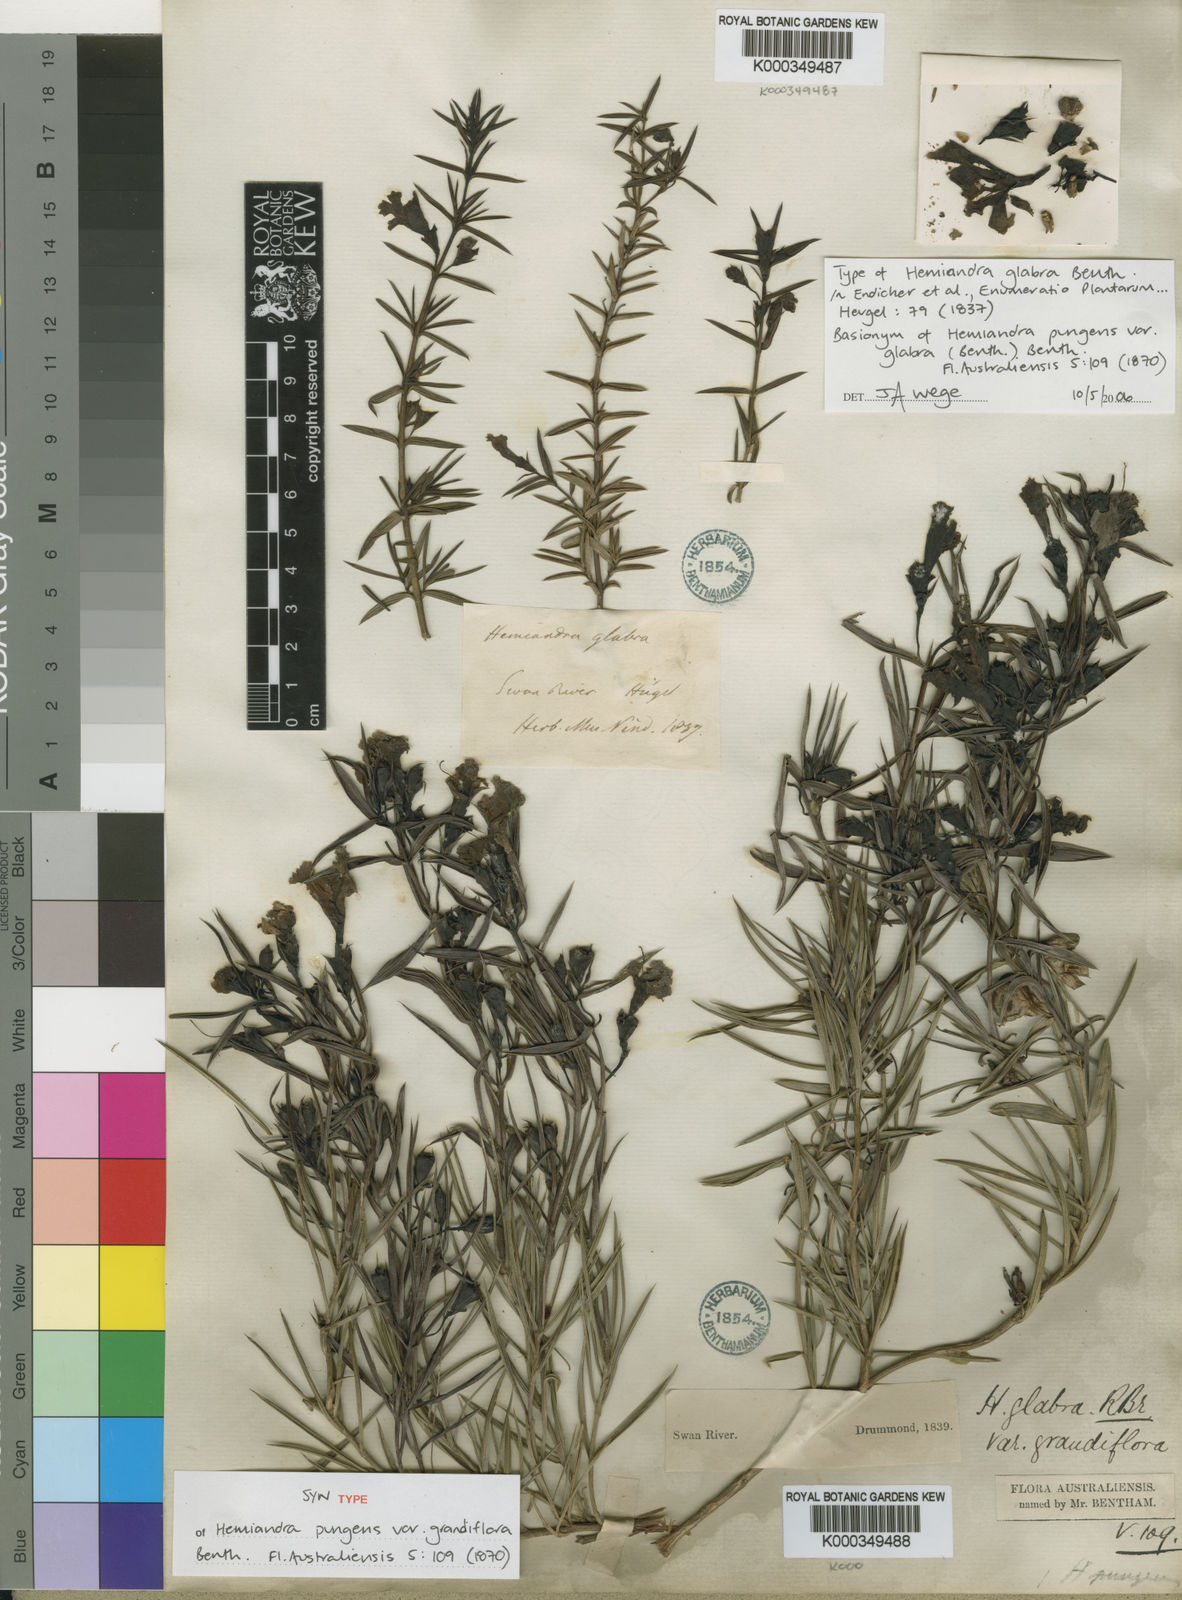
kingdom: Plantae
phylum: Tracheophyta
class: Magnoliopsida
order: Lamiales
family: Lamiaceae
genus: Hemiandra
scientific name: Hemiandra pungens
